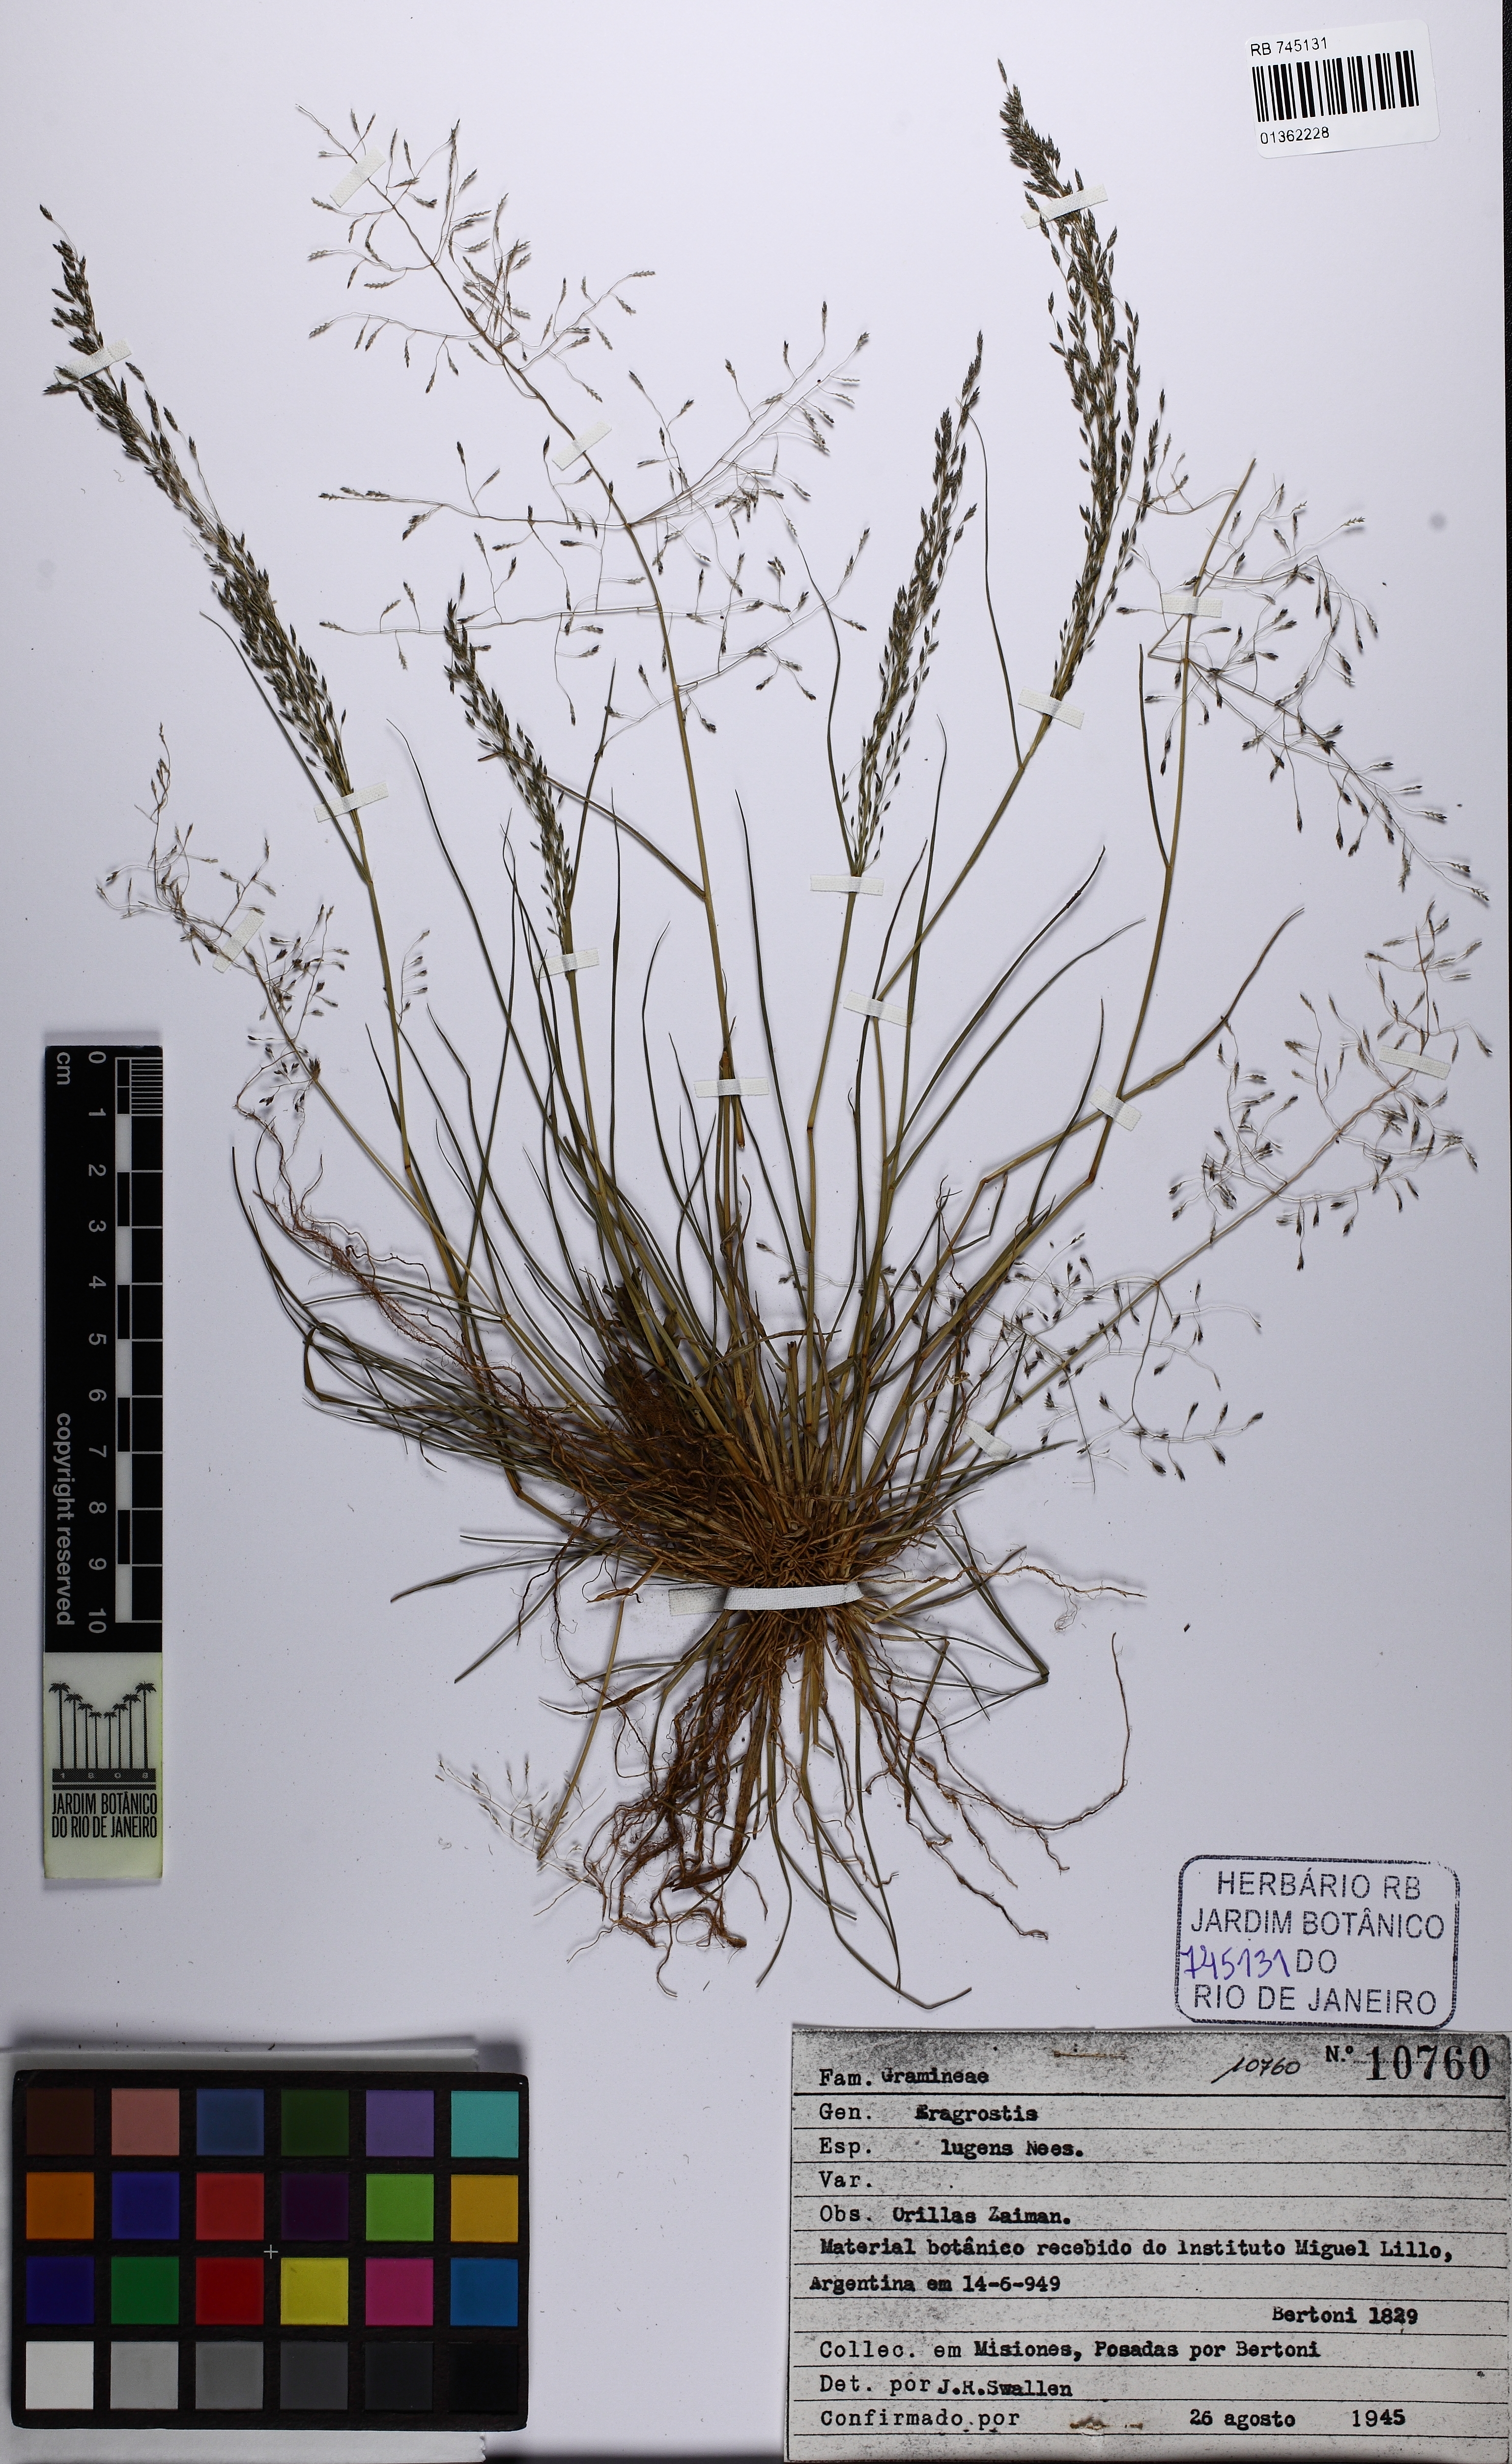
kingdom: Plantae
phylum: Tracheophyta
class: Liliopsida
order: Poales
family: Poaceae
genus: Eragrostis
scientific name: Eragrostis lugens
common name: Mourning love grass
